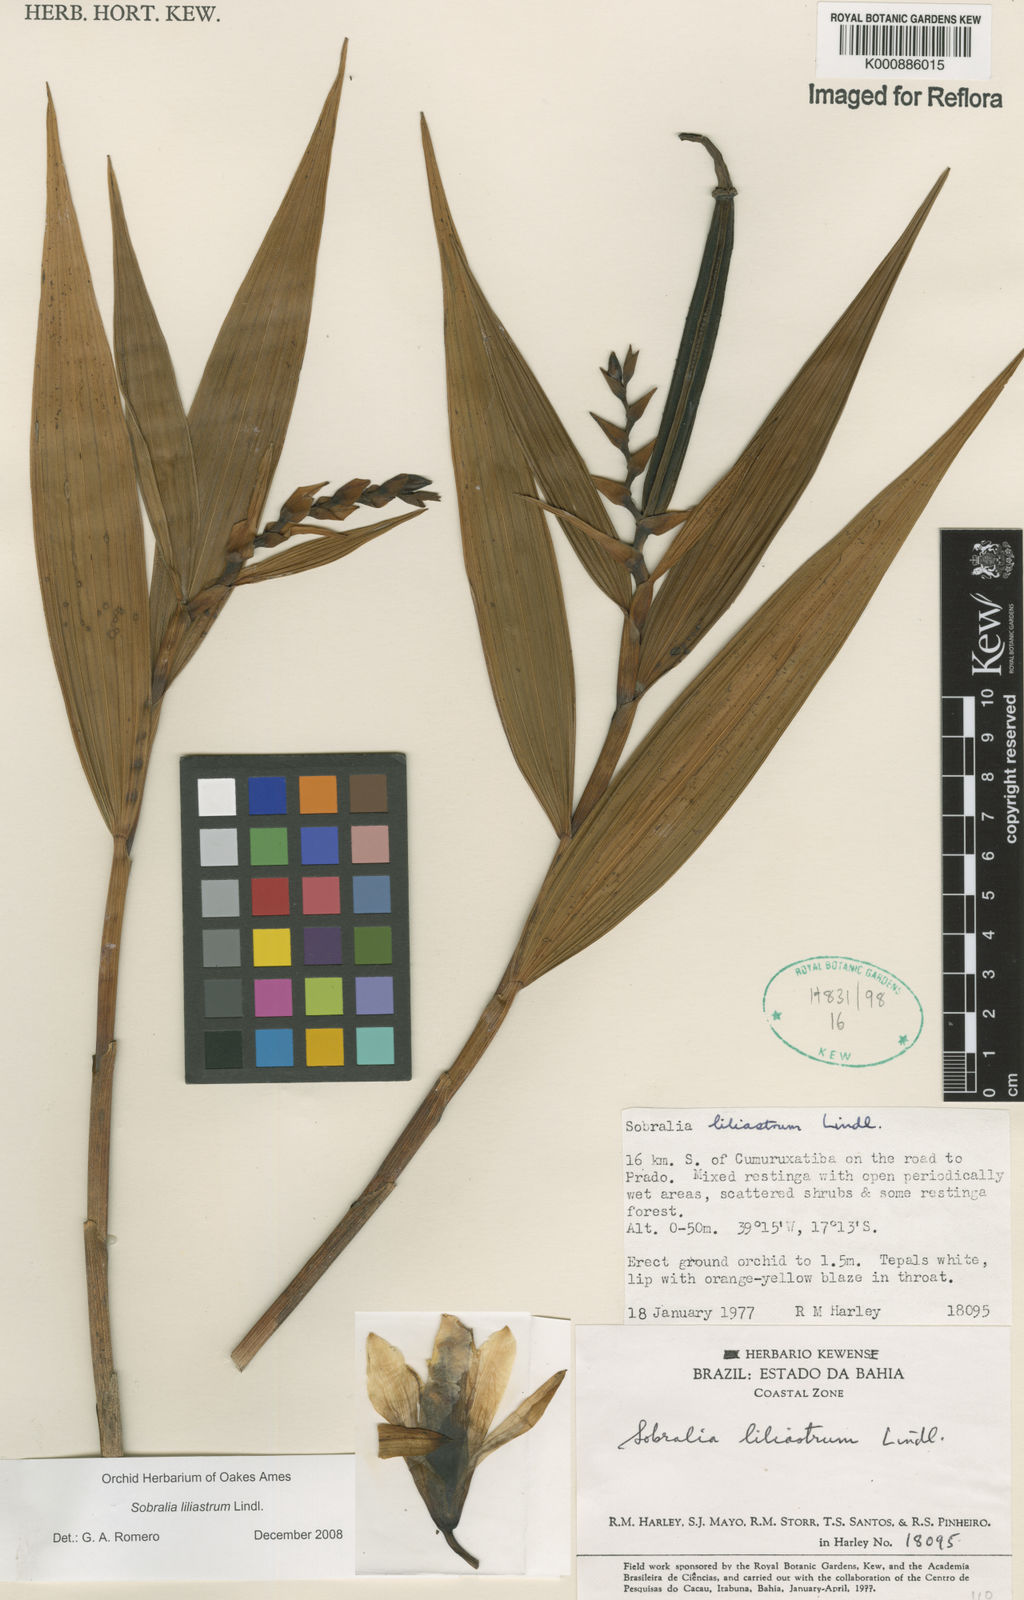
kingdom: Plantae
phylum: Tracheophyta
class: Liliopsida
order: Asparagales
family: Orchidaceae
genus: Sobralia
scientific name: Sobralia liliastrum
